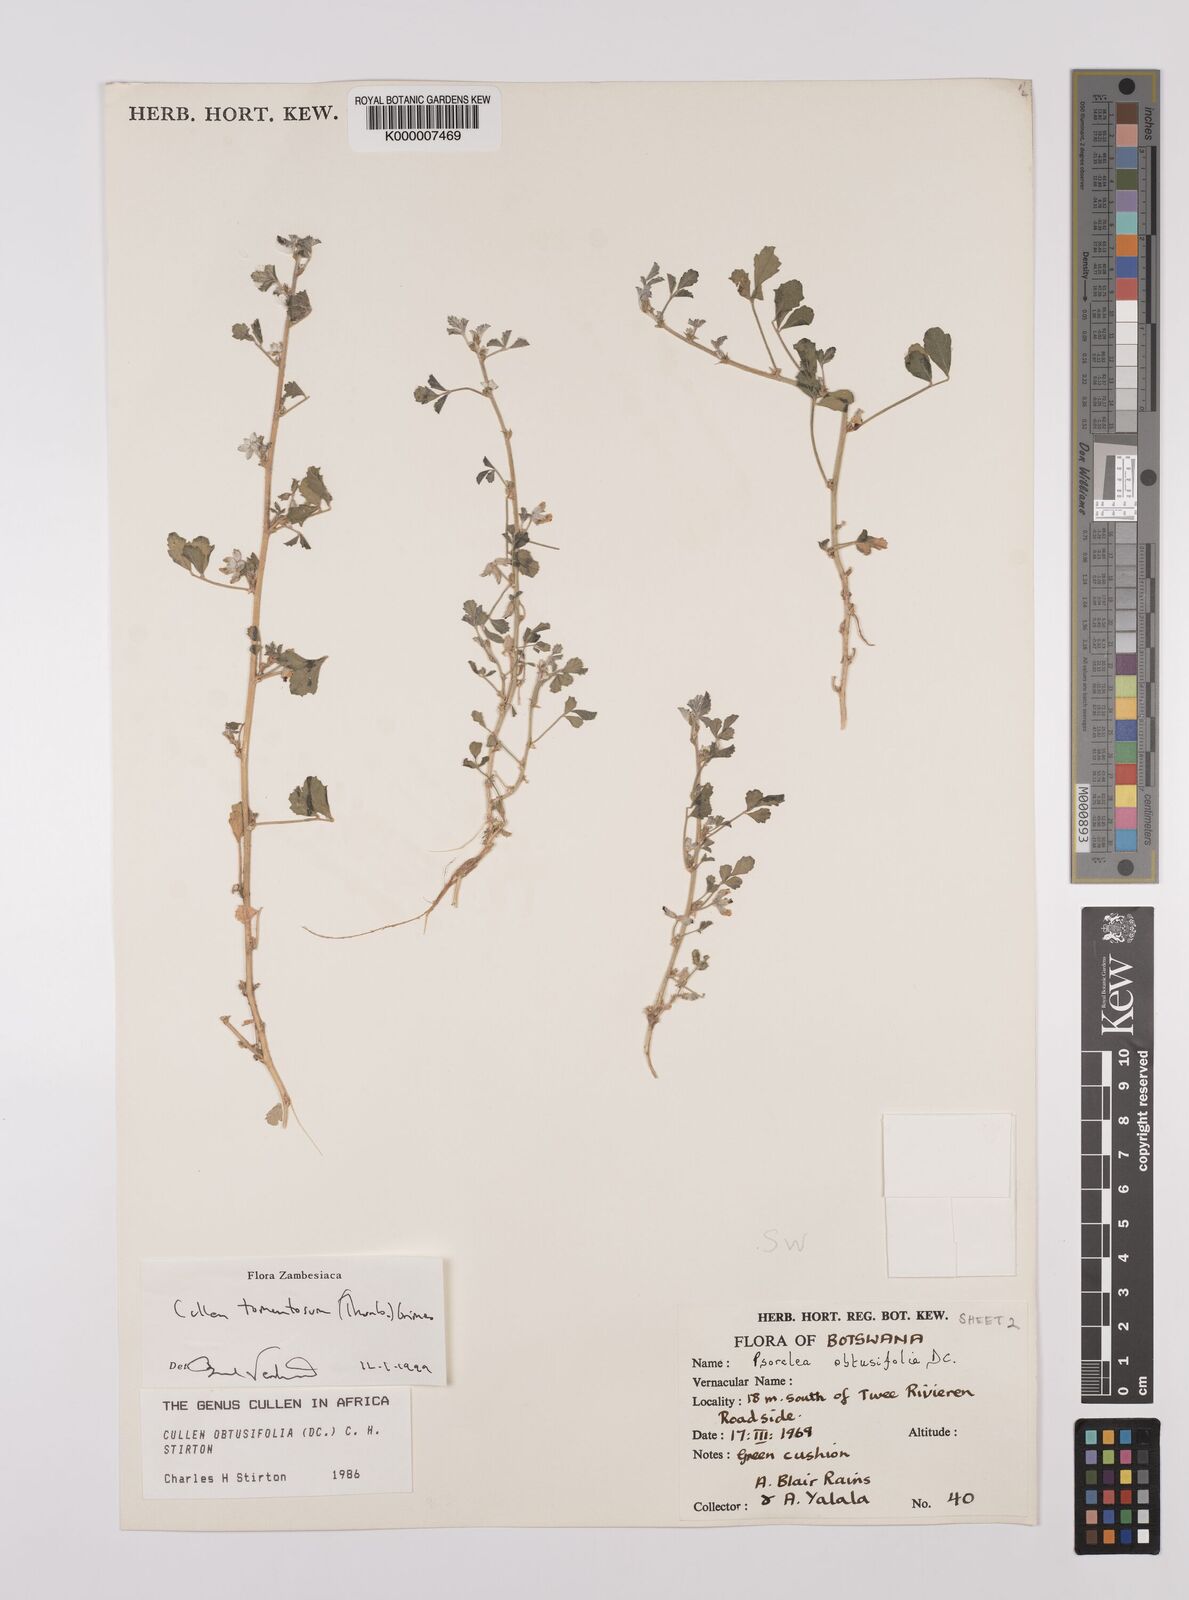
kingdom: Plantae
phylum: Tracheophyta
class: Magnoliopsida
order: Fabales
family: Fabaceae
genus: Cullen
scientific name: Cullen tomentosum
